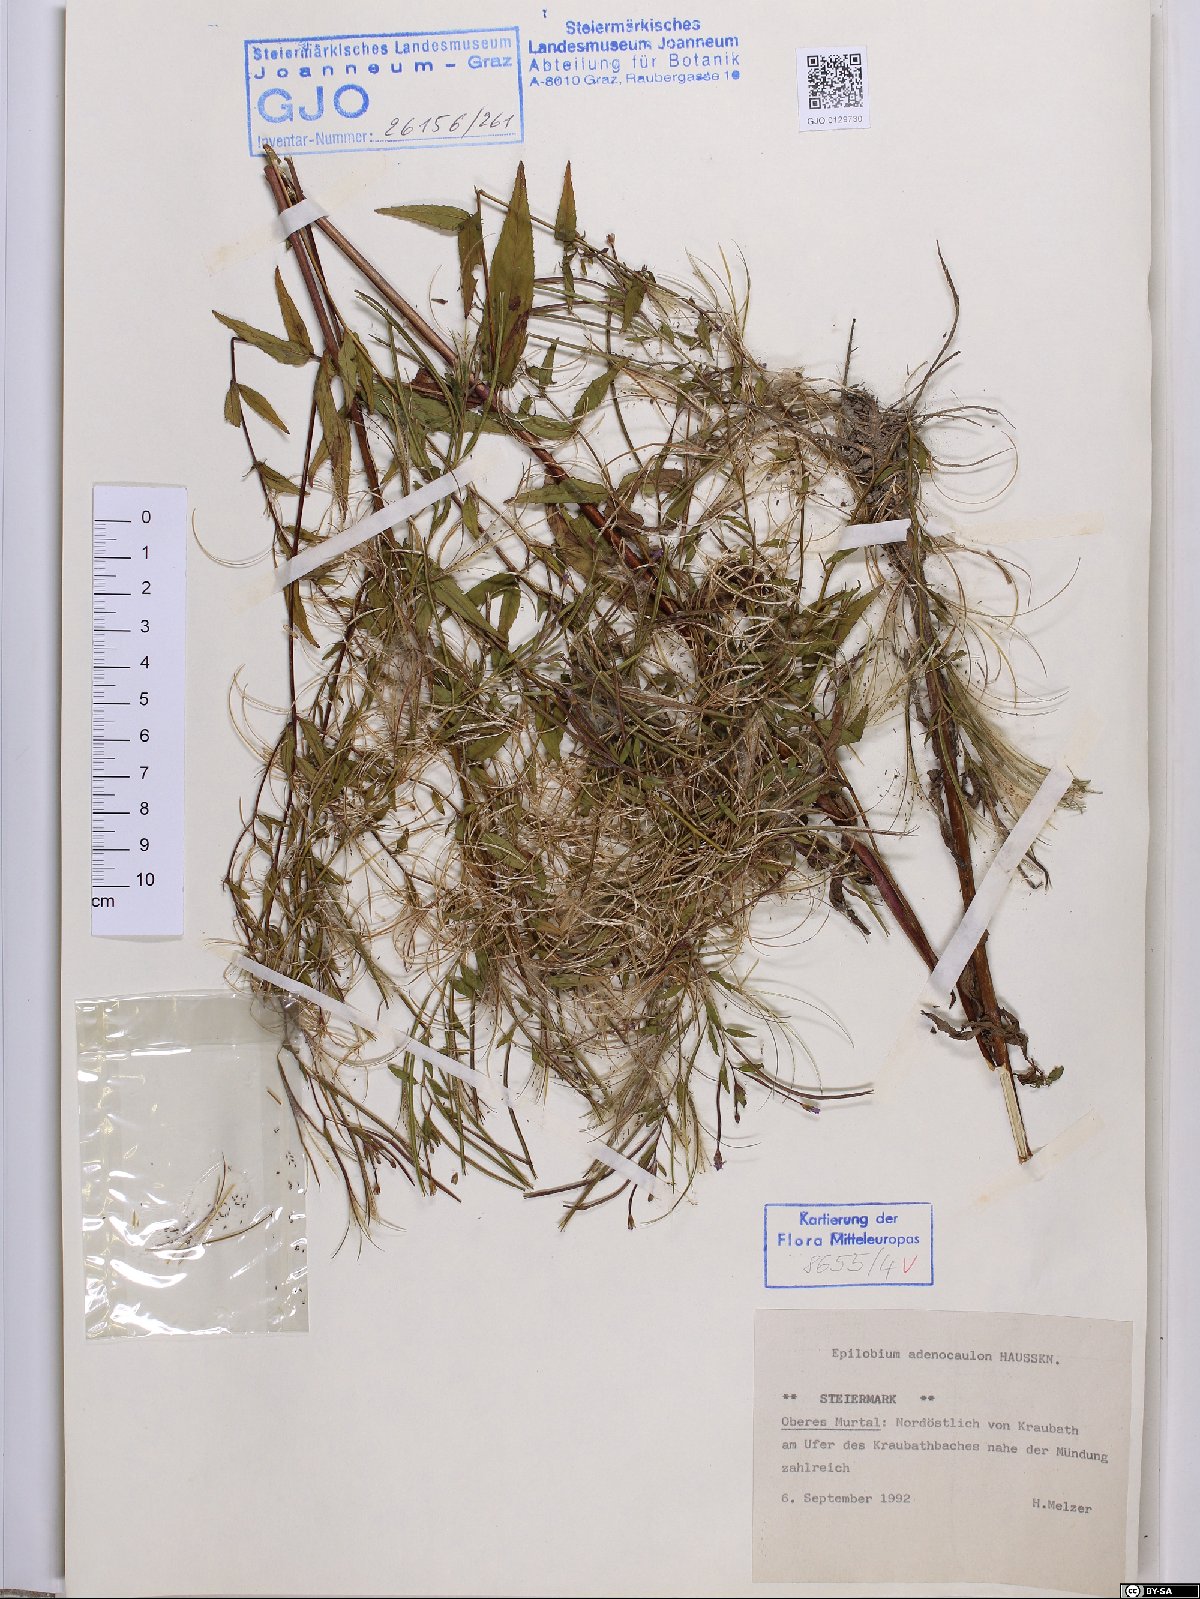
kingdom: Plantae
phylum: Tracheophyta
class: Magnoliopsida
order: Myrtales
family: Onagraceae
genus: Epilobium
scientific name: Epilobium ciliatum
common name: American willowherb
